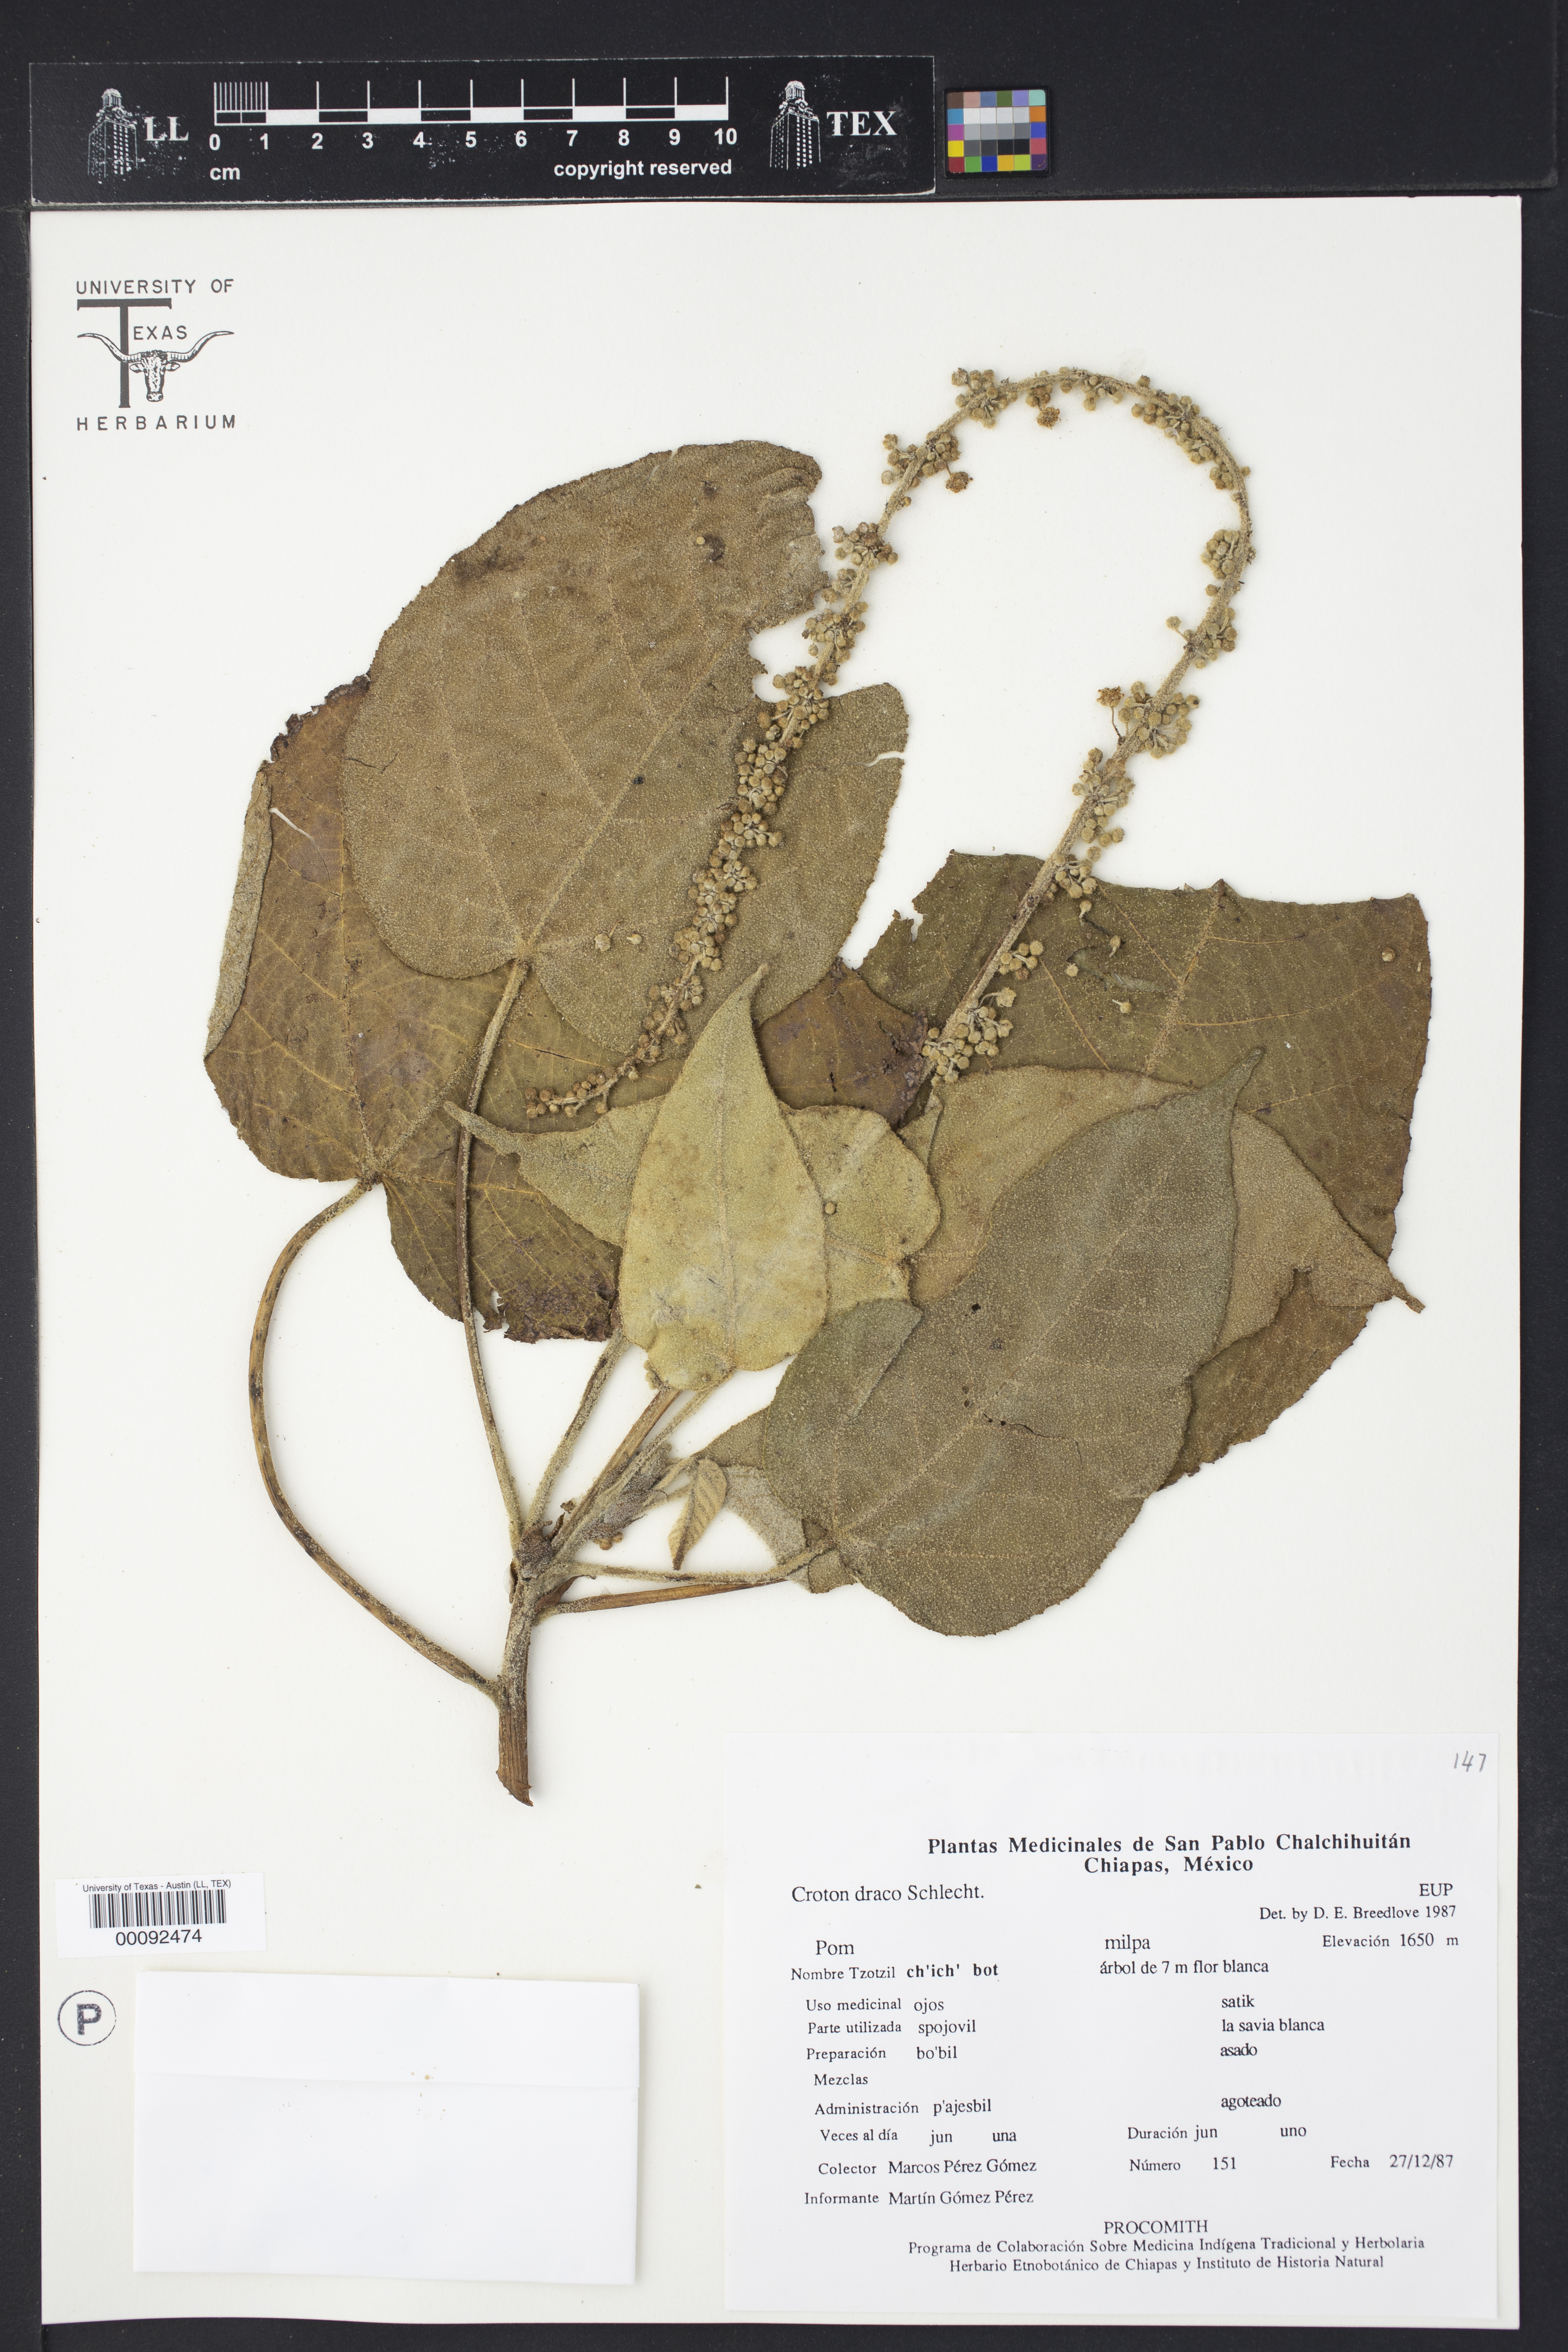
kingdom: Plantae
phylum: Tracheophyta
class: Magnoliopsida
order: Malpighiales
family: Euphorbiaceae
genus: Croton
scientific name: Croton draco
